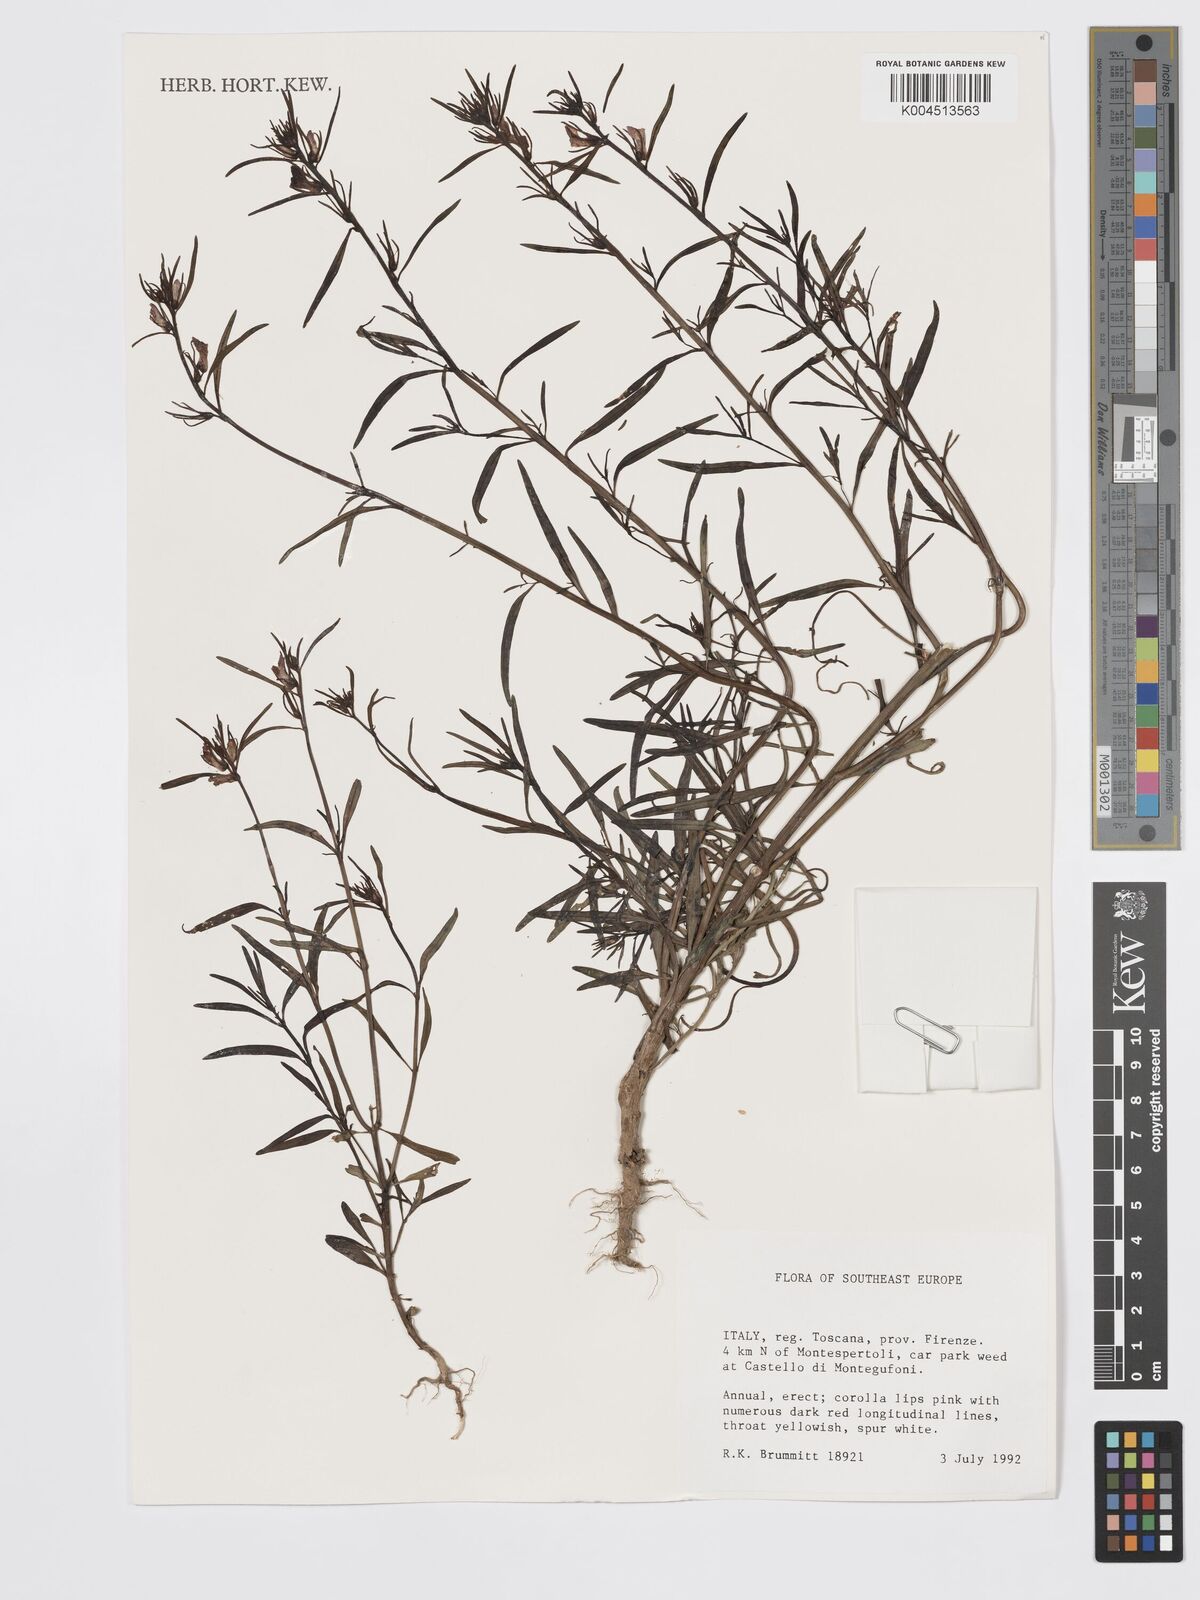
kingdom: Plantae
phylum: Tracheophyta
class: Magnoliopsida
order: Lamiales
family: Plantaginaceae
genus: Chaenorhinum
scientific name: Chaenorhinum minus
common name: Dwarf snapdragon
